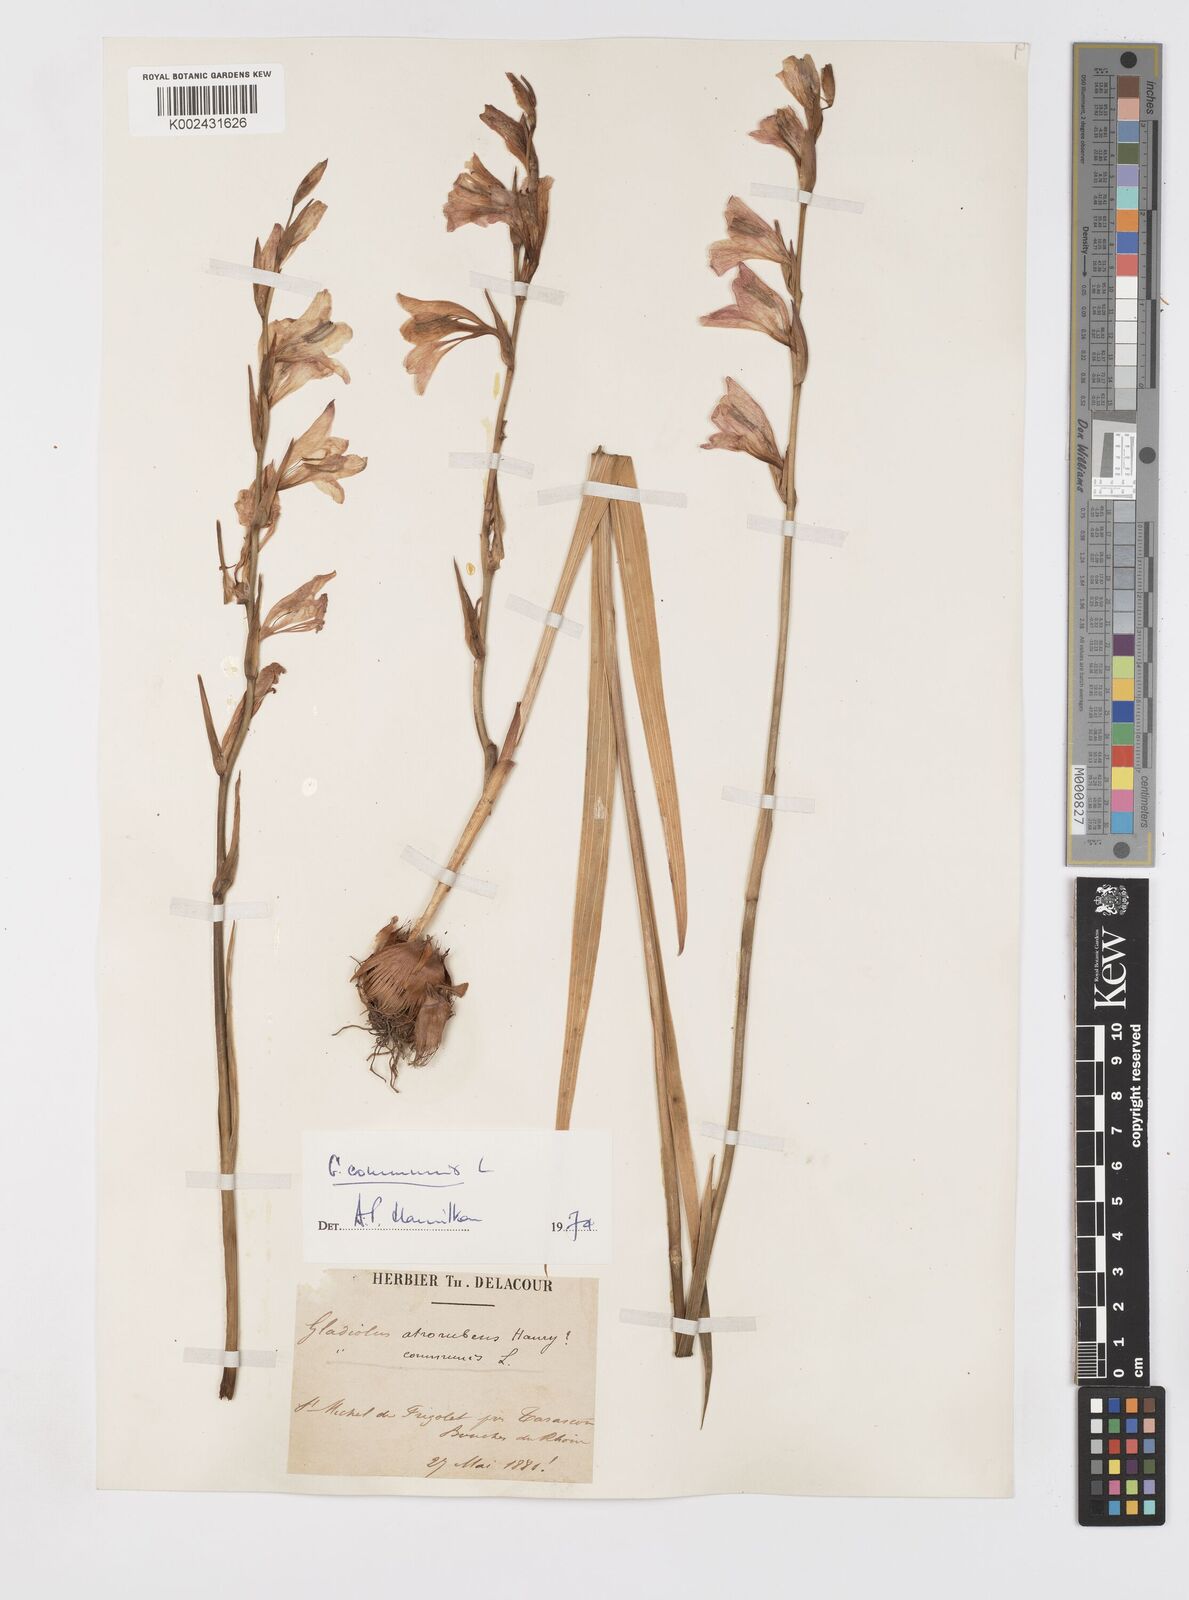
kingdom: Plantae
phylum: Tracheophyta
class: Liliopsida
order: Asparagales
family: Iridaceae
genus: Gladiolus
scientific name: Gladiolus communis
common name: Eastern gladiolus
